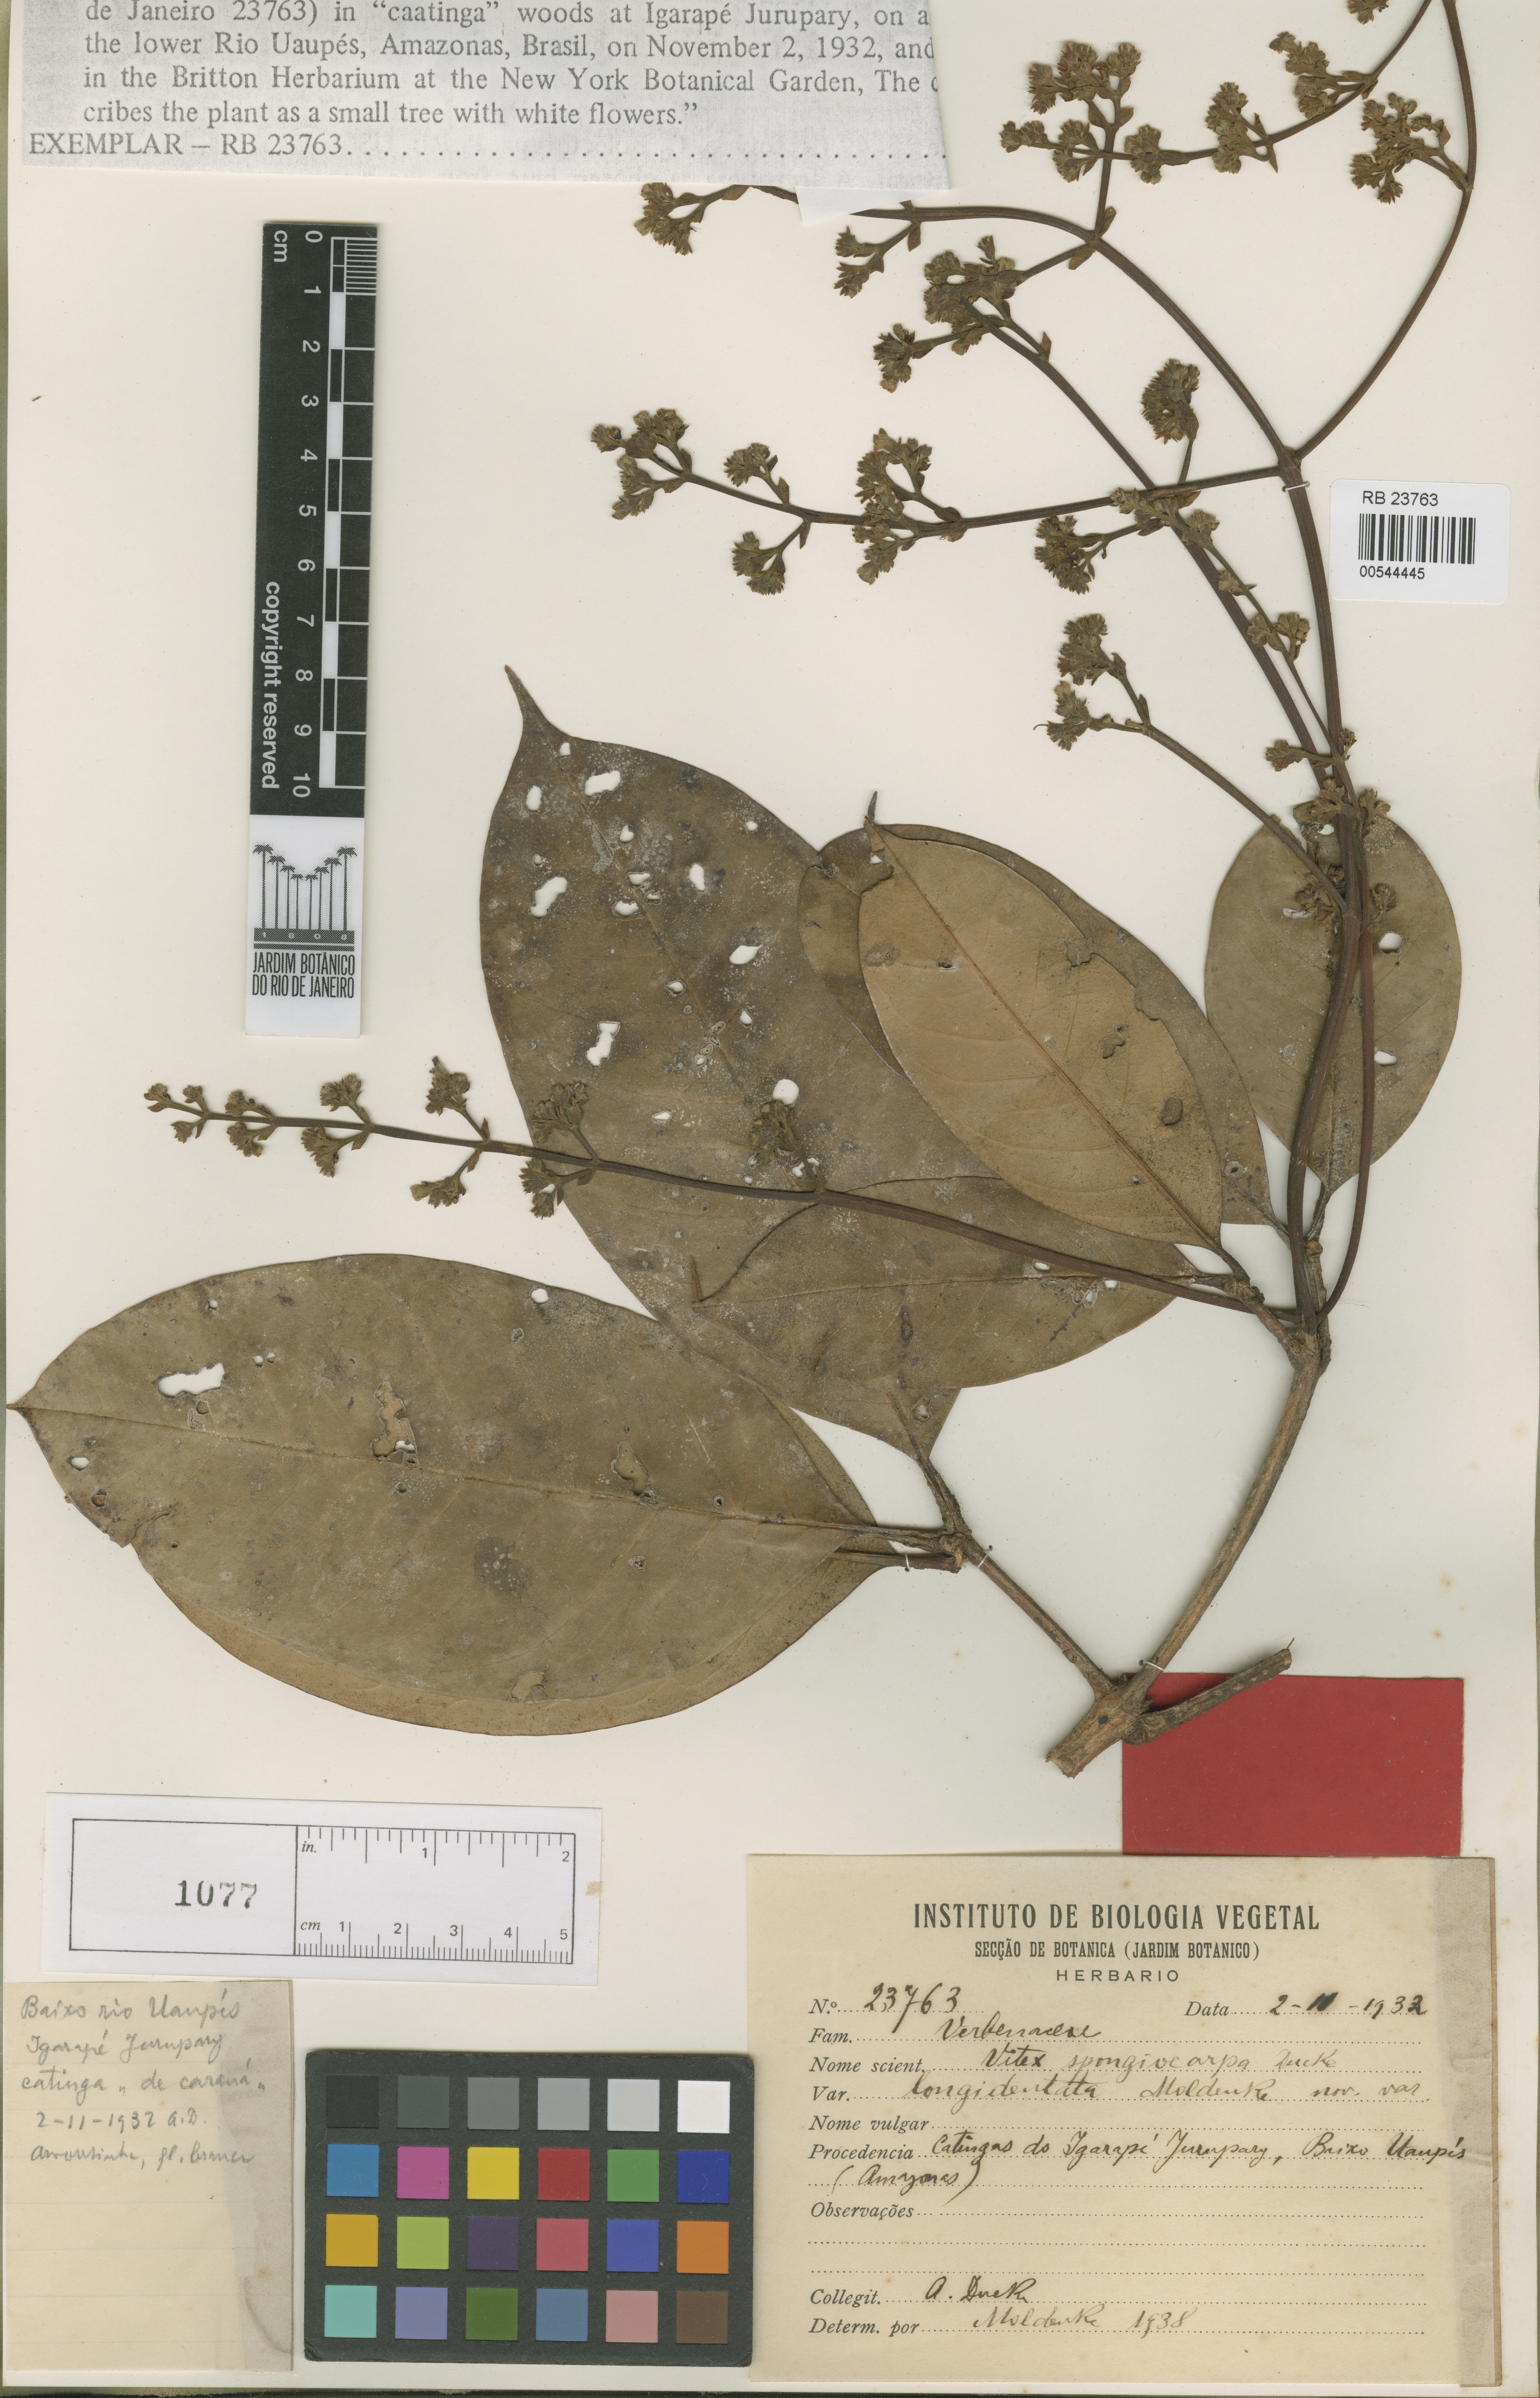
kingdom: Plantae
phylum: Tracheophyta
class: Magnoliopsida
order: Lamiales
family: Lamiaceae
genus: Vitex
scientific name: Vitex sprucei
